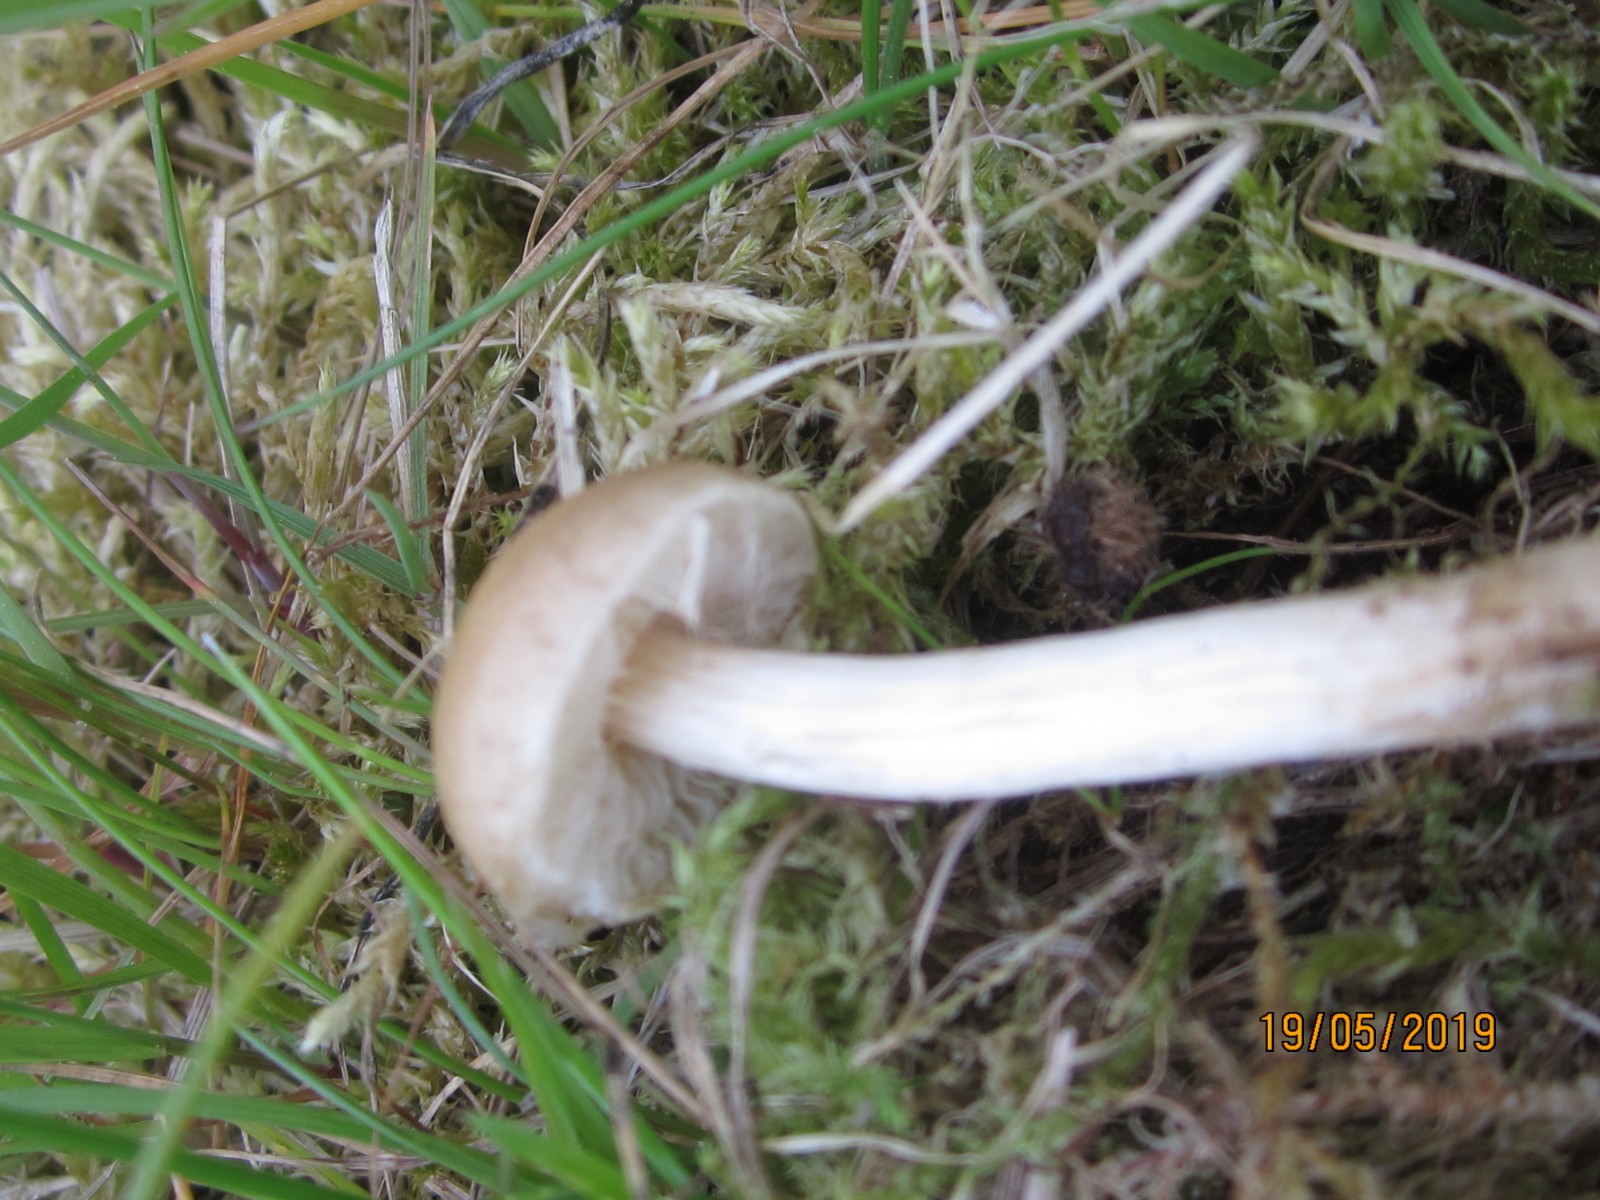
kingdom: Fungi
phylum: Basidiomycota
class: Agaricomycetes
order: Agaricales
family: Strophariaceae
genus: Agrocybe
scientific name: Agrocybe
